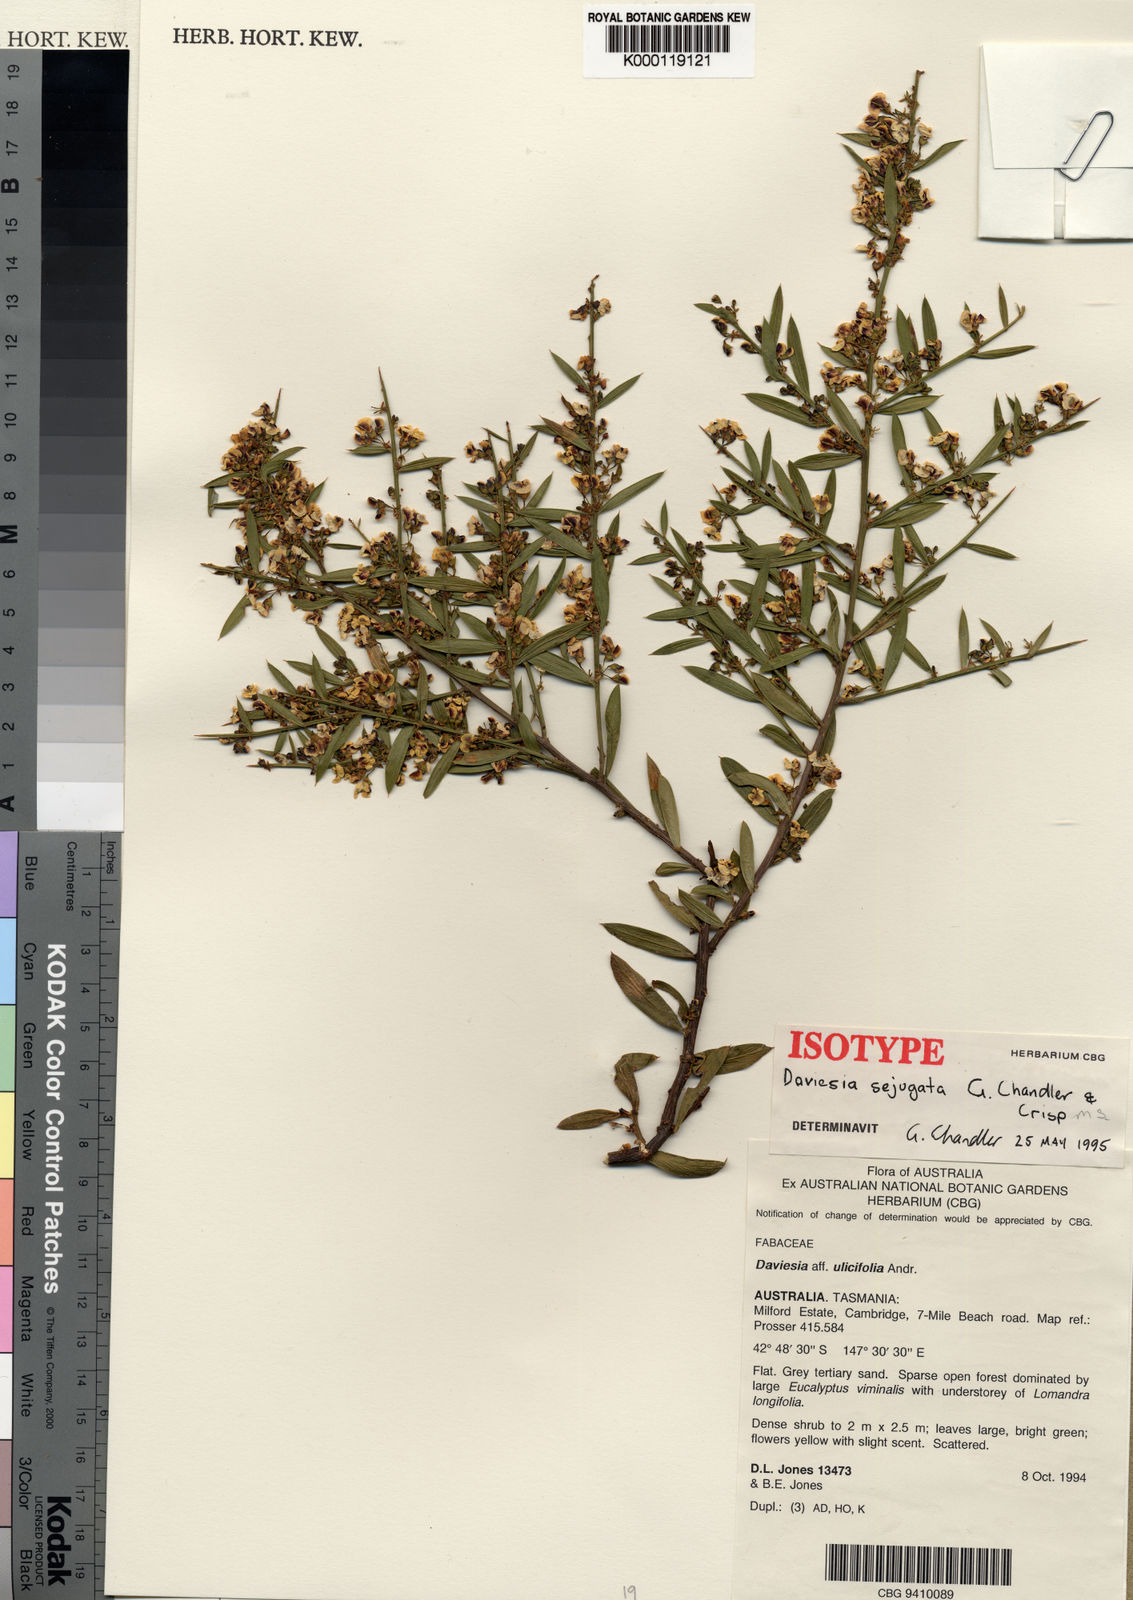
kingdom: Plantae
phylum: Tracheophyta
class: Magnoliopsida
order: Fabales
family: Fabaceae
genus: Daviesia
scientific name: Daviesia sejugata
